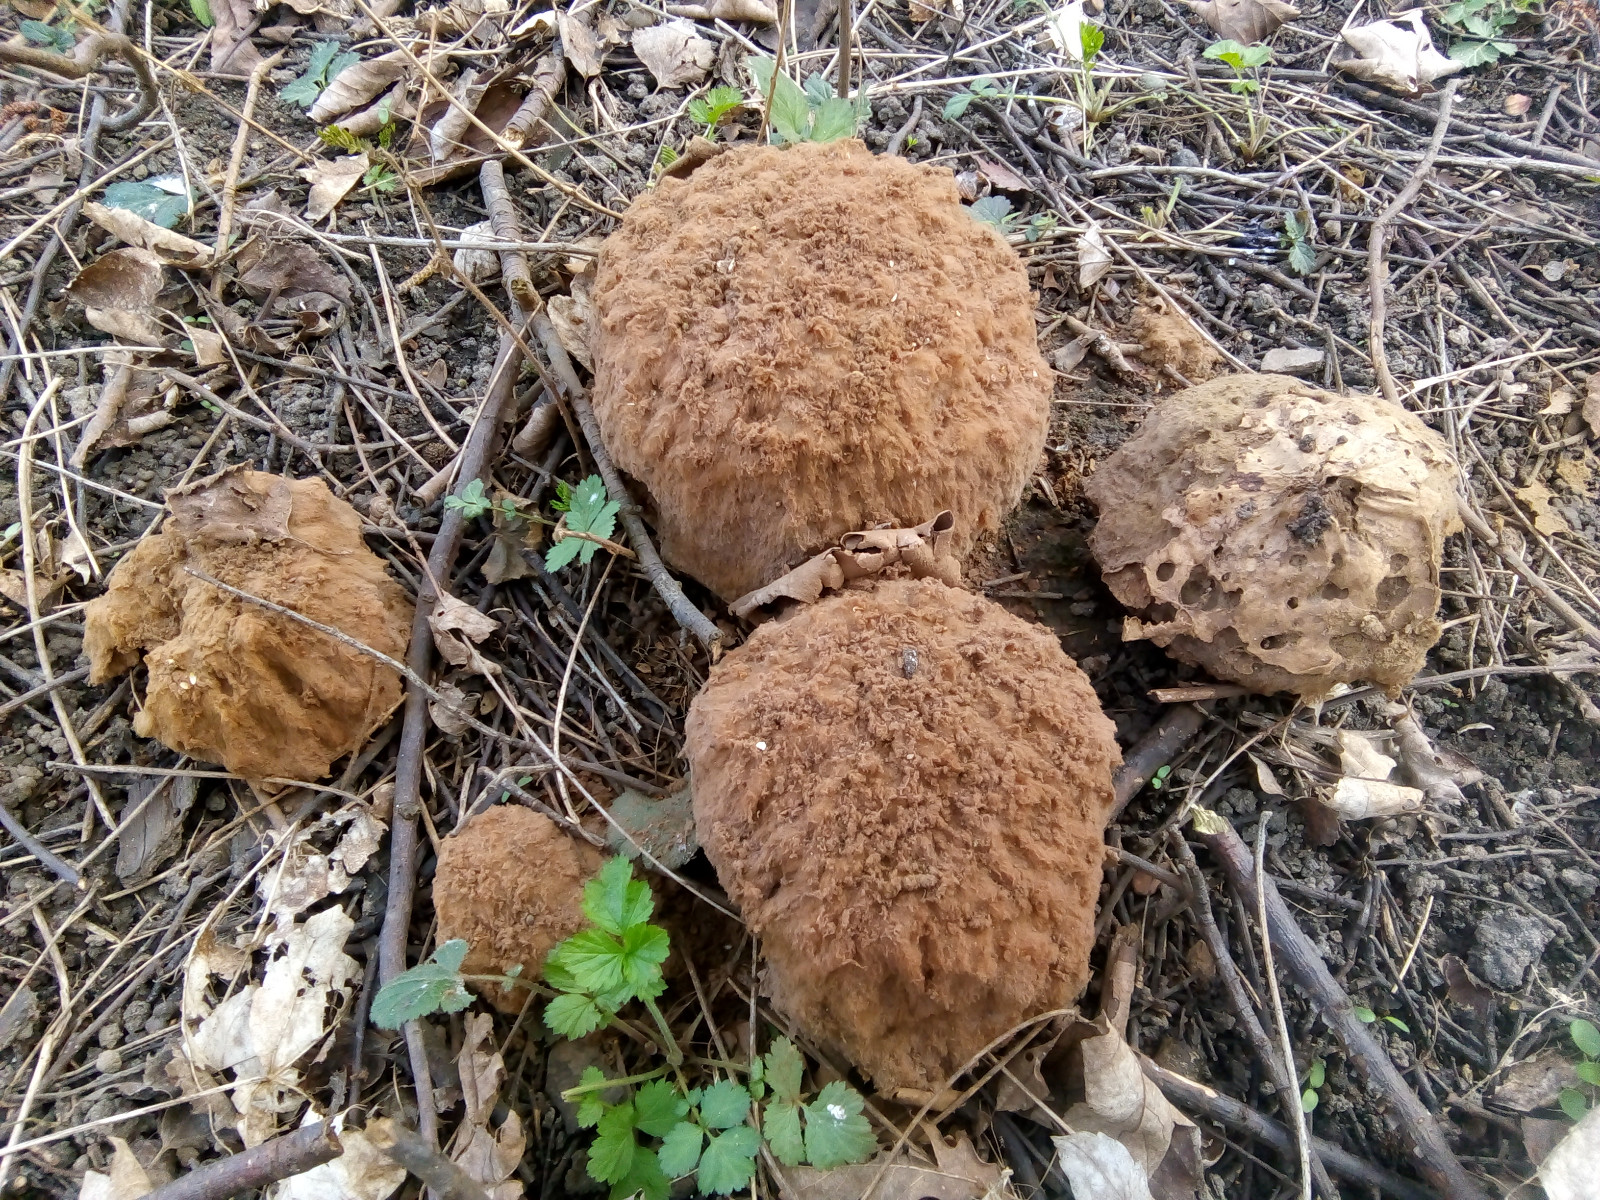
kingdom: Fungi
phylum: Basidiomycota
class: Agaricomycetes
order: Agaricales
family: Lycoperdaceae
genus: Calvatia
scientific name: Calvatia gigantea
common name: kæmpestøvbold
